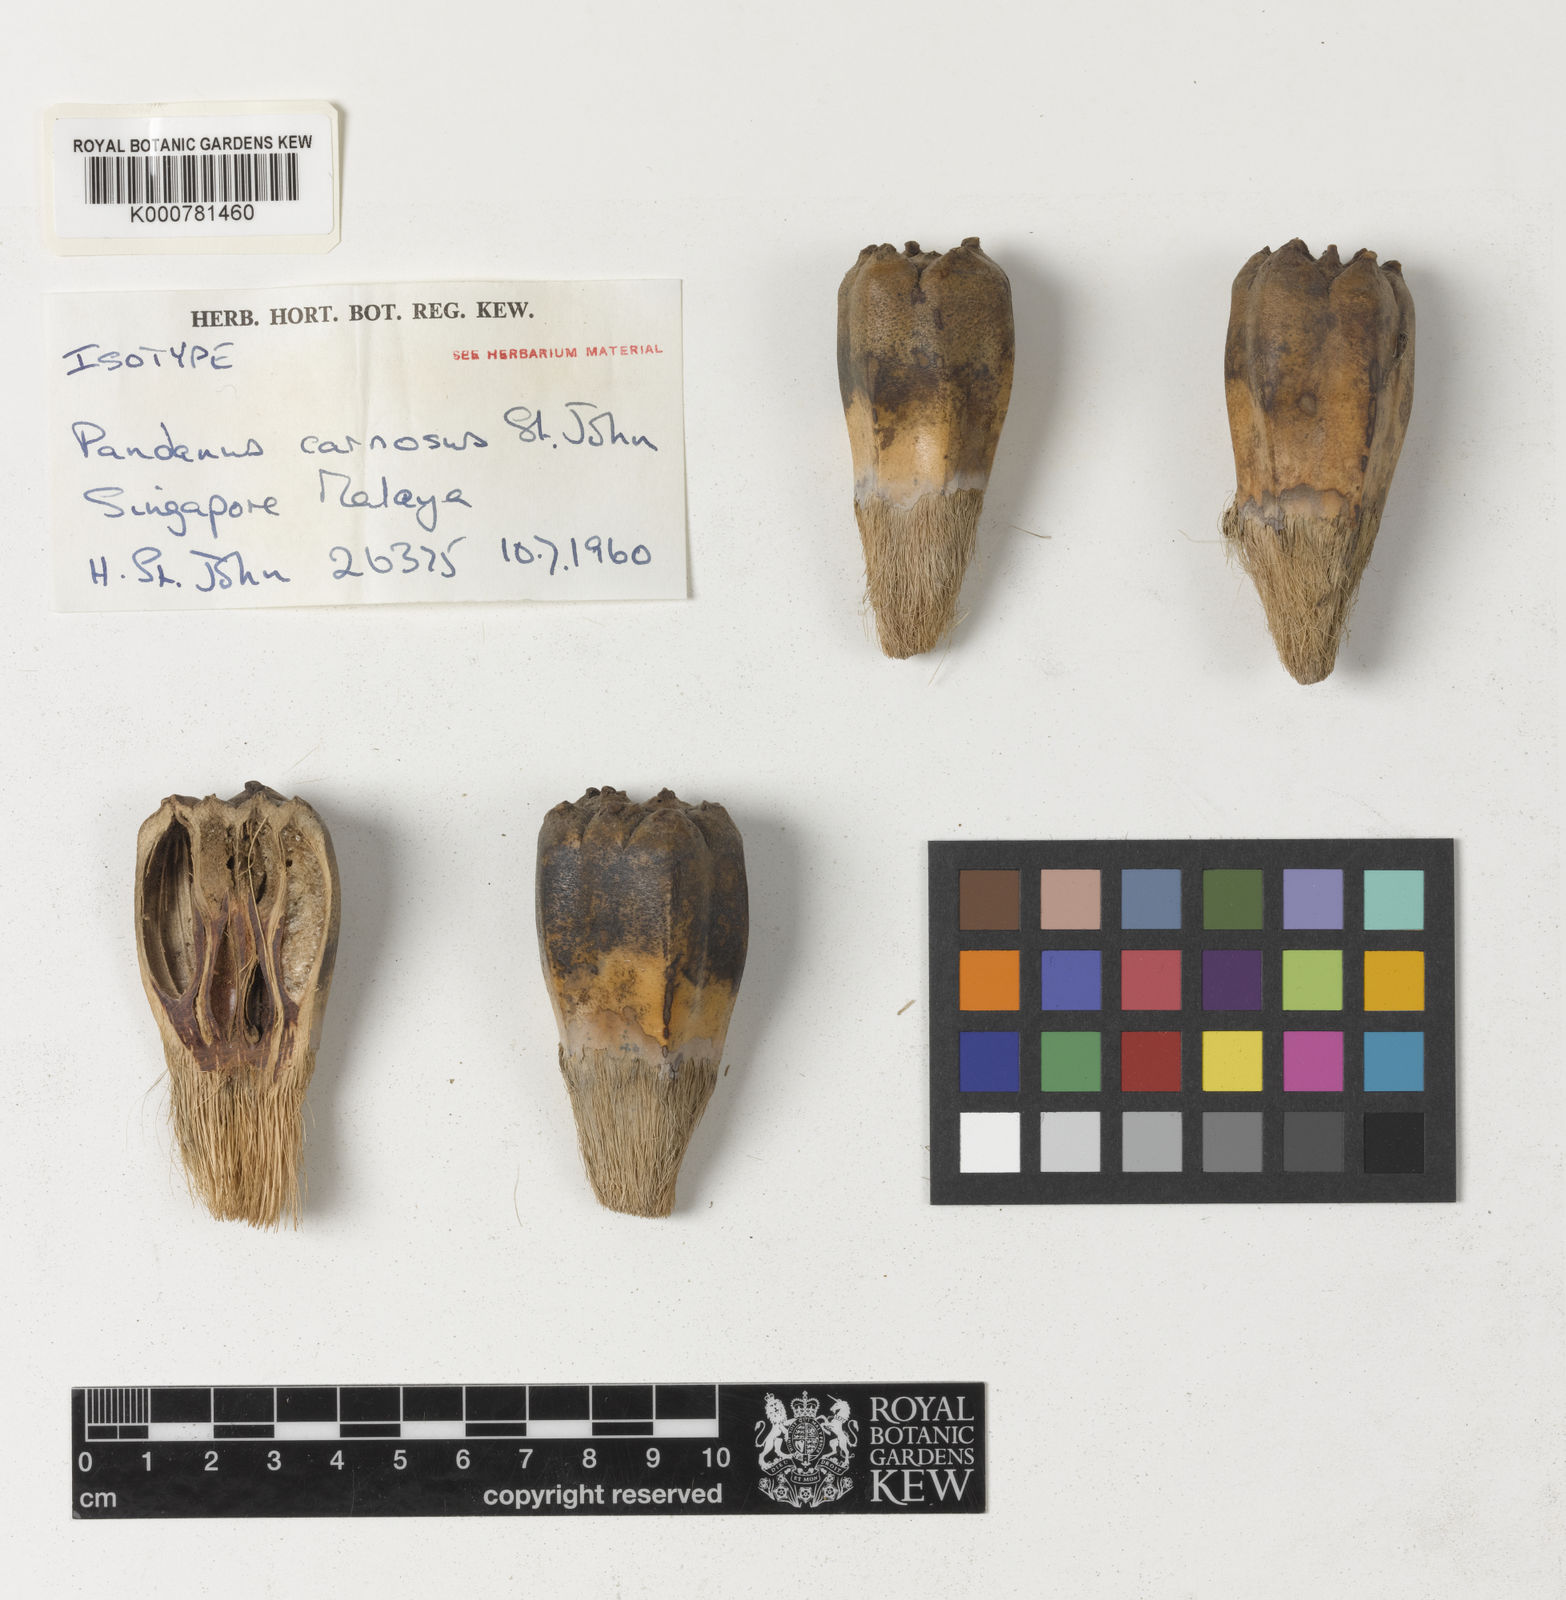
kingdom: Plantae
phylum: Tracheophyta
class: Liliopsida
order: Pandanales
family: Pandanaceae
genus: Pandanus
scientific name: Pandanus odorifer
